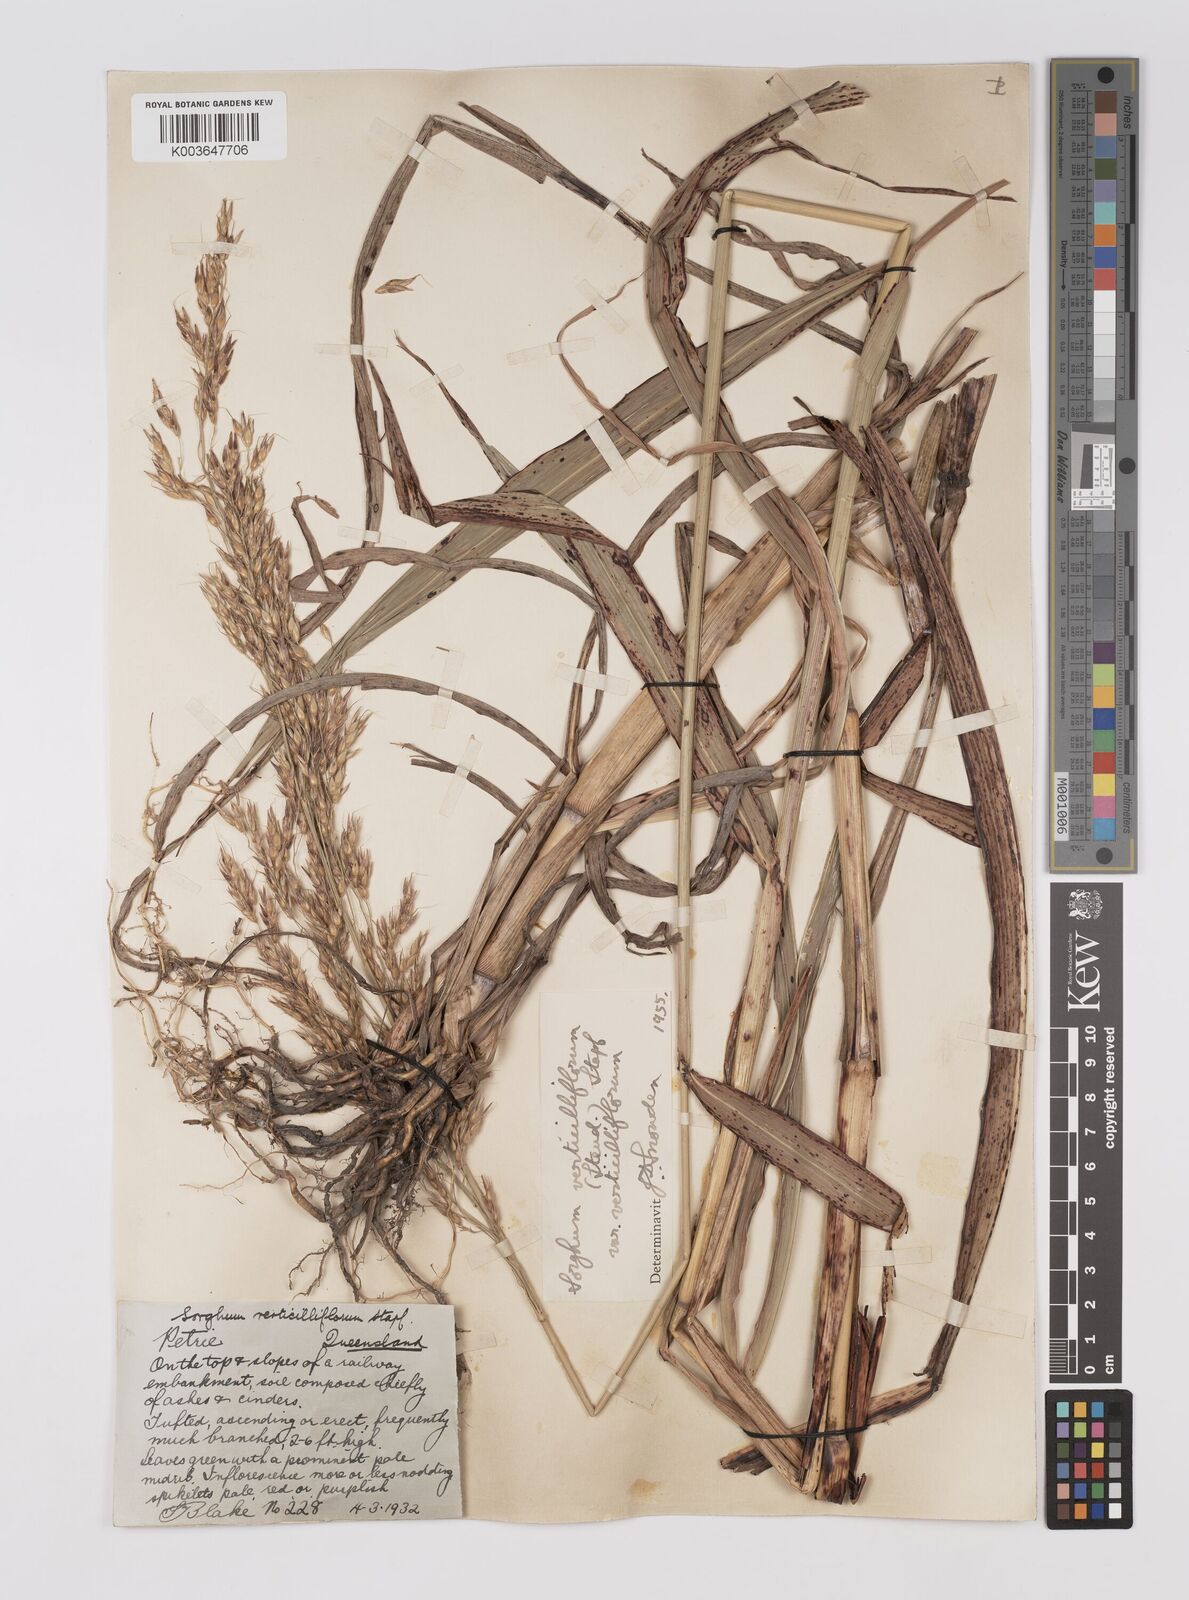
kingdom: Plantae
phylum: Tracheophyta
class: Liliopsida
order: Poales
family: Poaceae
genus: Sorghum
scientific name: Sorghum arundinaceum
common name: Sorghum
